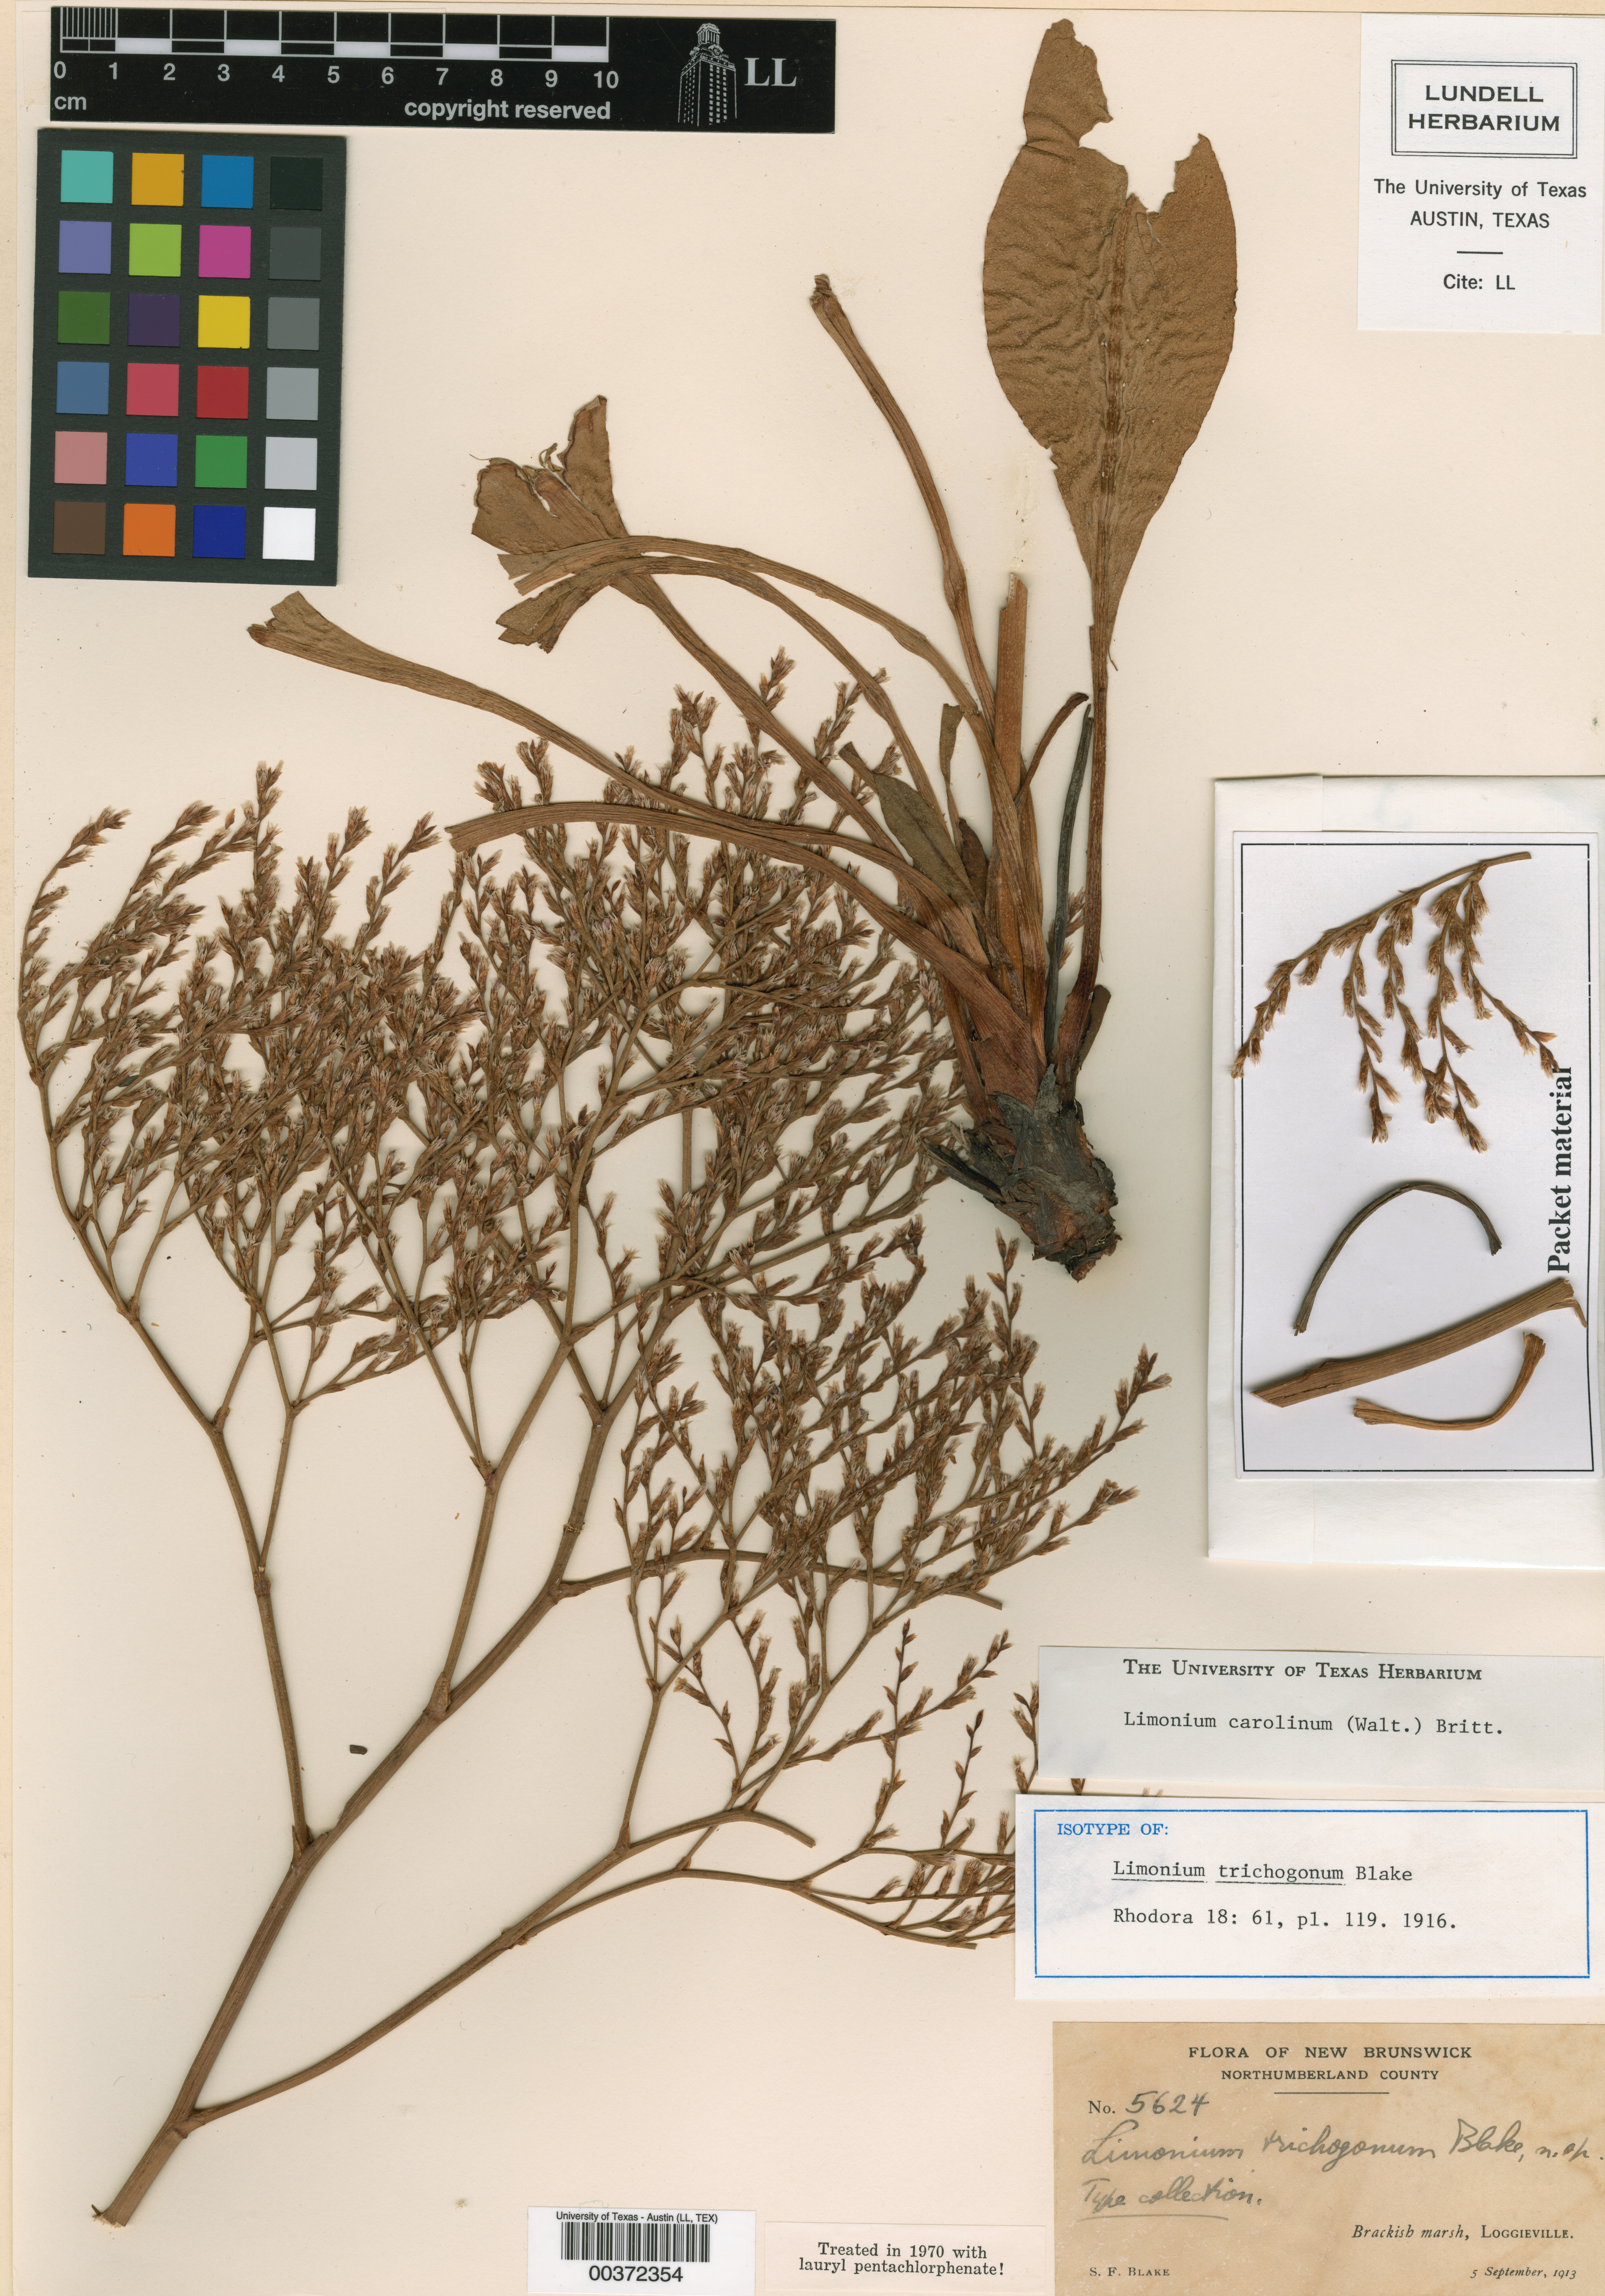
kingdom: Plantae
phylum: Tracheophyta
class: Magnoliopsida
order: Caryophyllales
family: Plumbaginaceae
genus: Limonium
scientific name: Limonium carolinianum
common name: Carolina sea lavender
